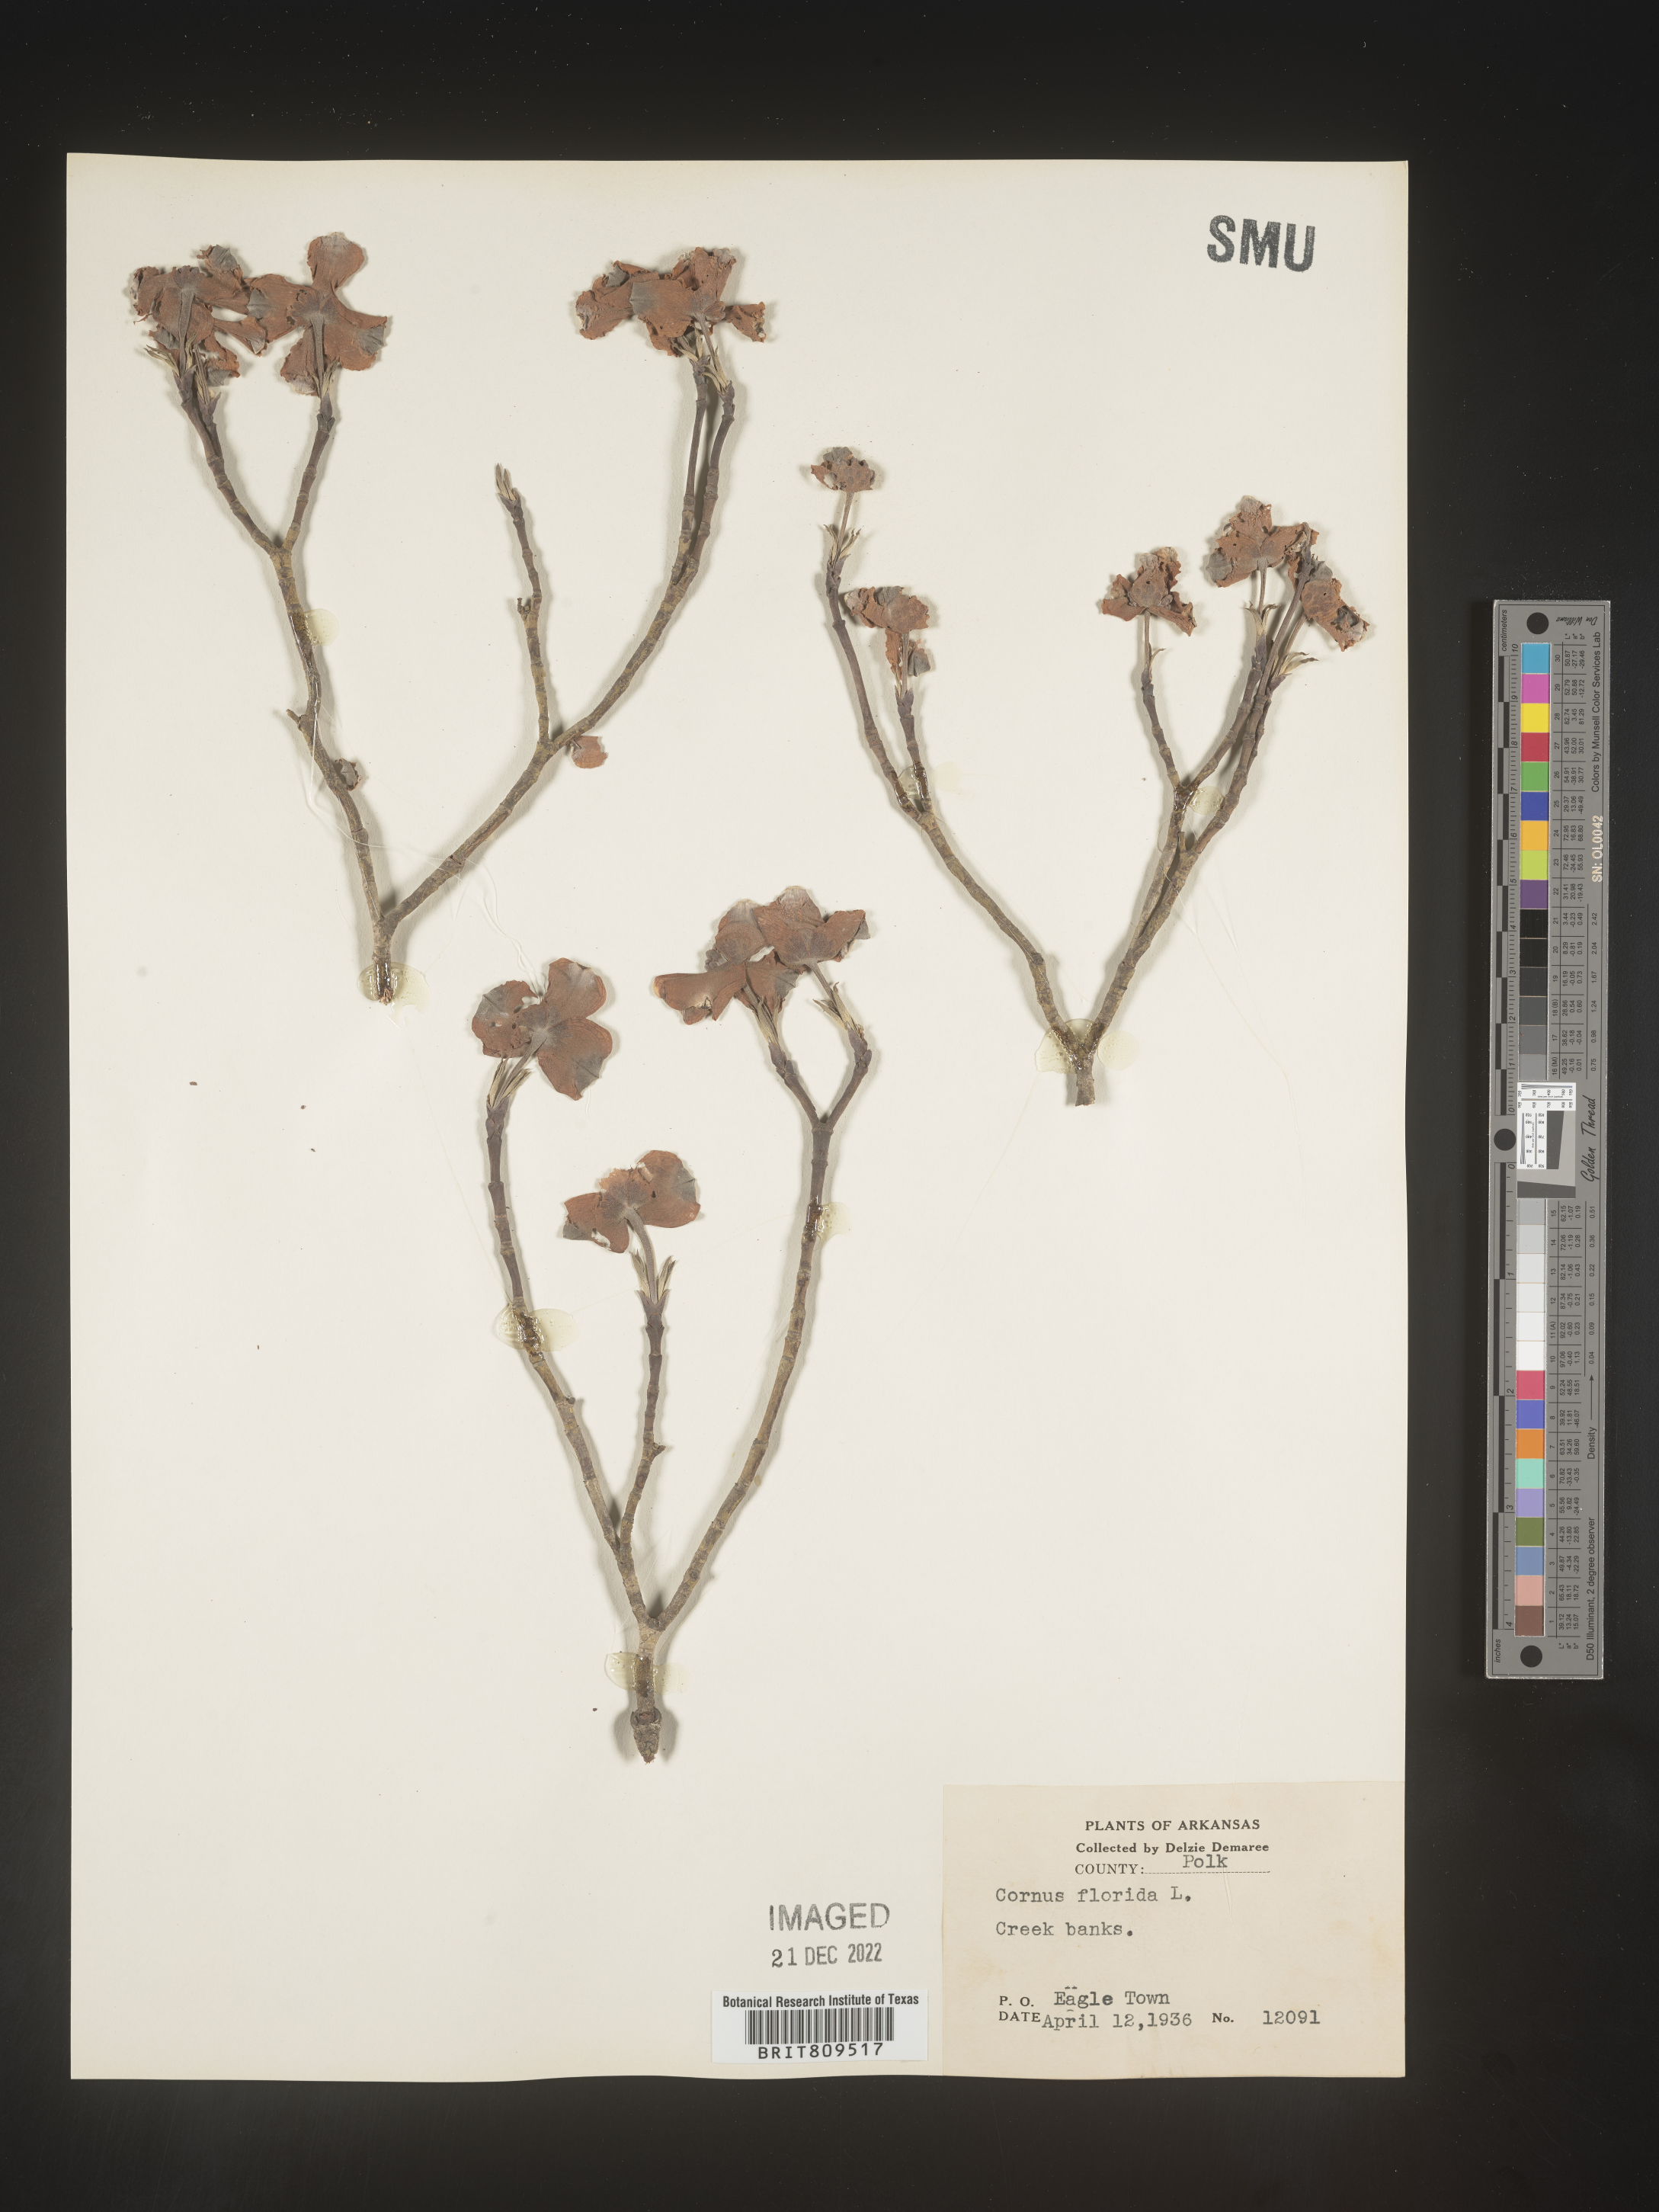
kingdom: Plantae
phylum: Tracheophyta
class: Magnoliopsida
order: Cornales
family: Cornaceae
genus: Cornus
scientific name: Cornus florida
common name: Flowering dogwood
